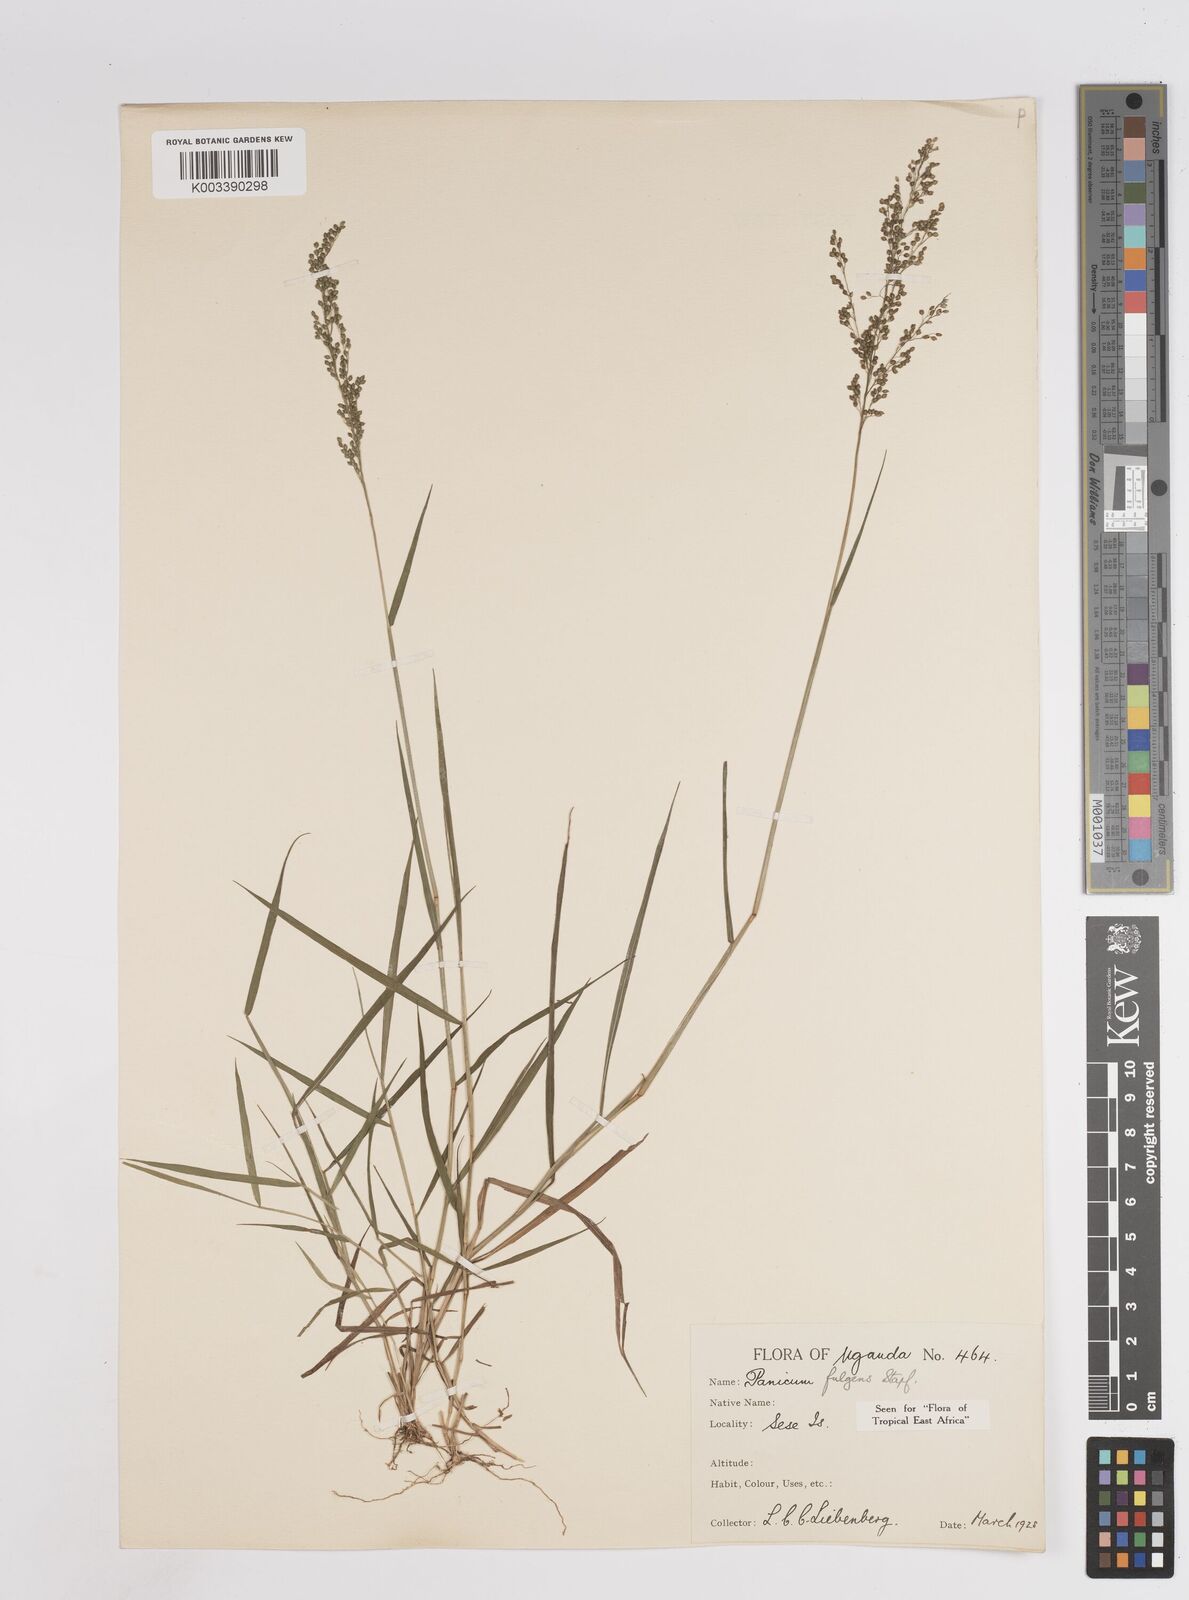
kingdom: Plantae
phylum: Tracheophyta
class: Liliopsida
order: Poales
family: Poaceae
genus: Trichanthecium
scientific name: Trichanthecium nervatum
